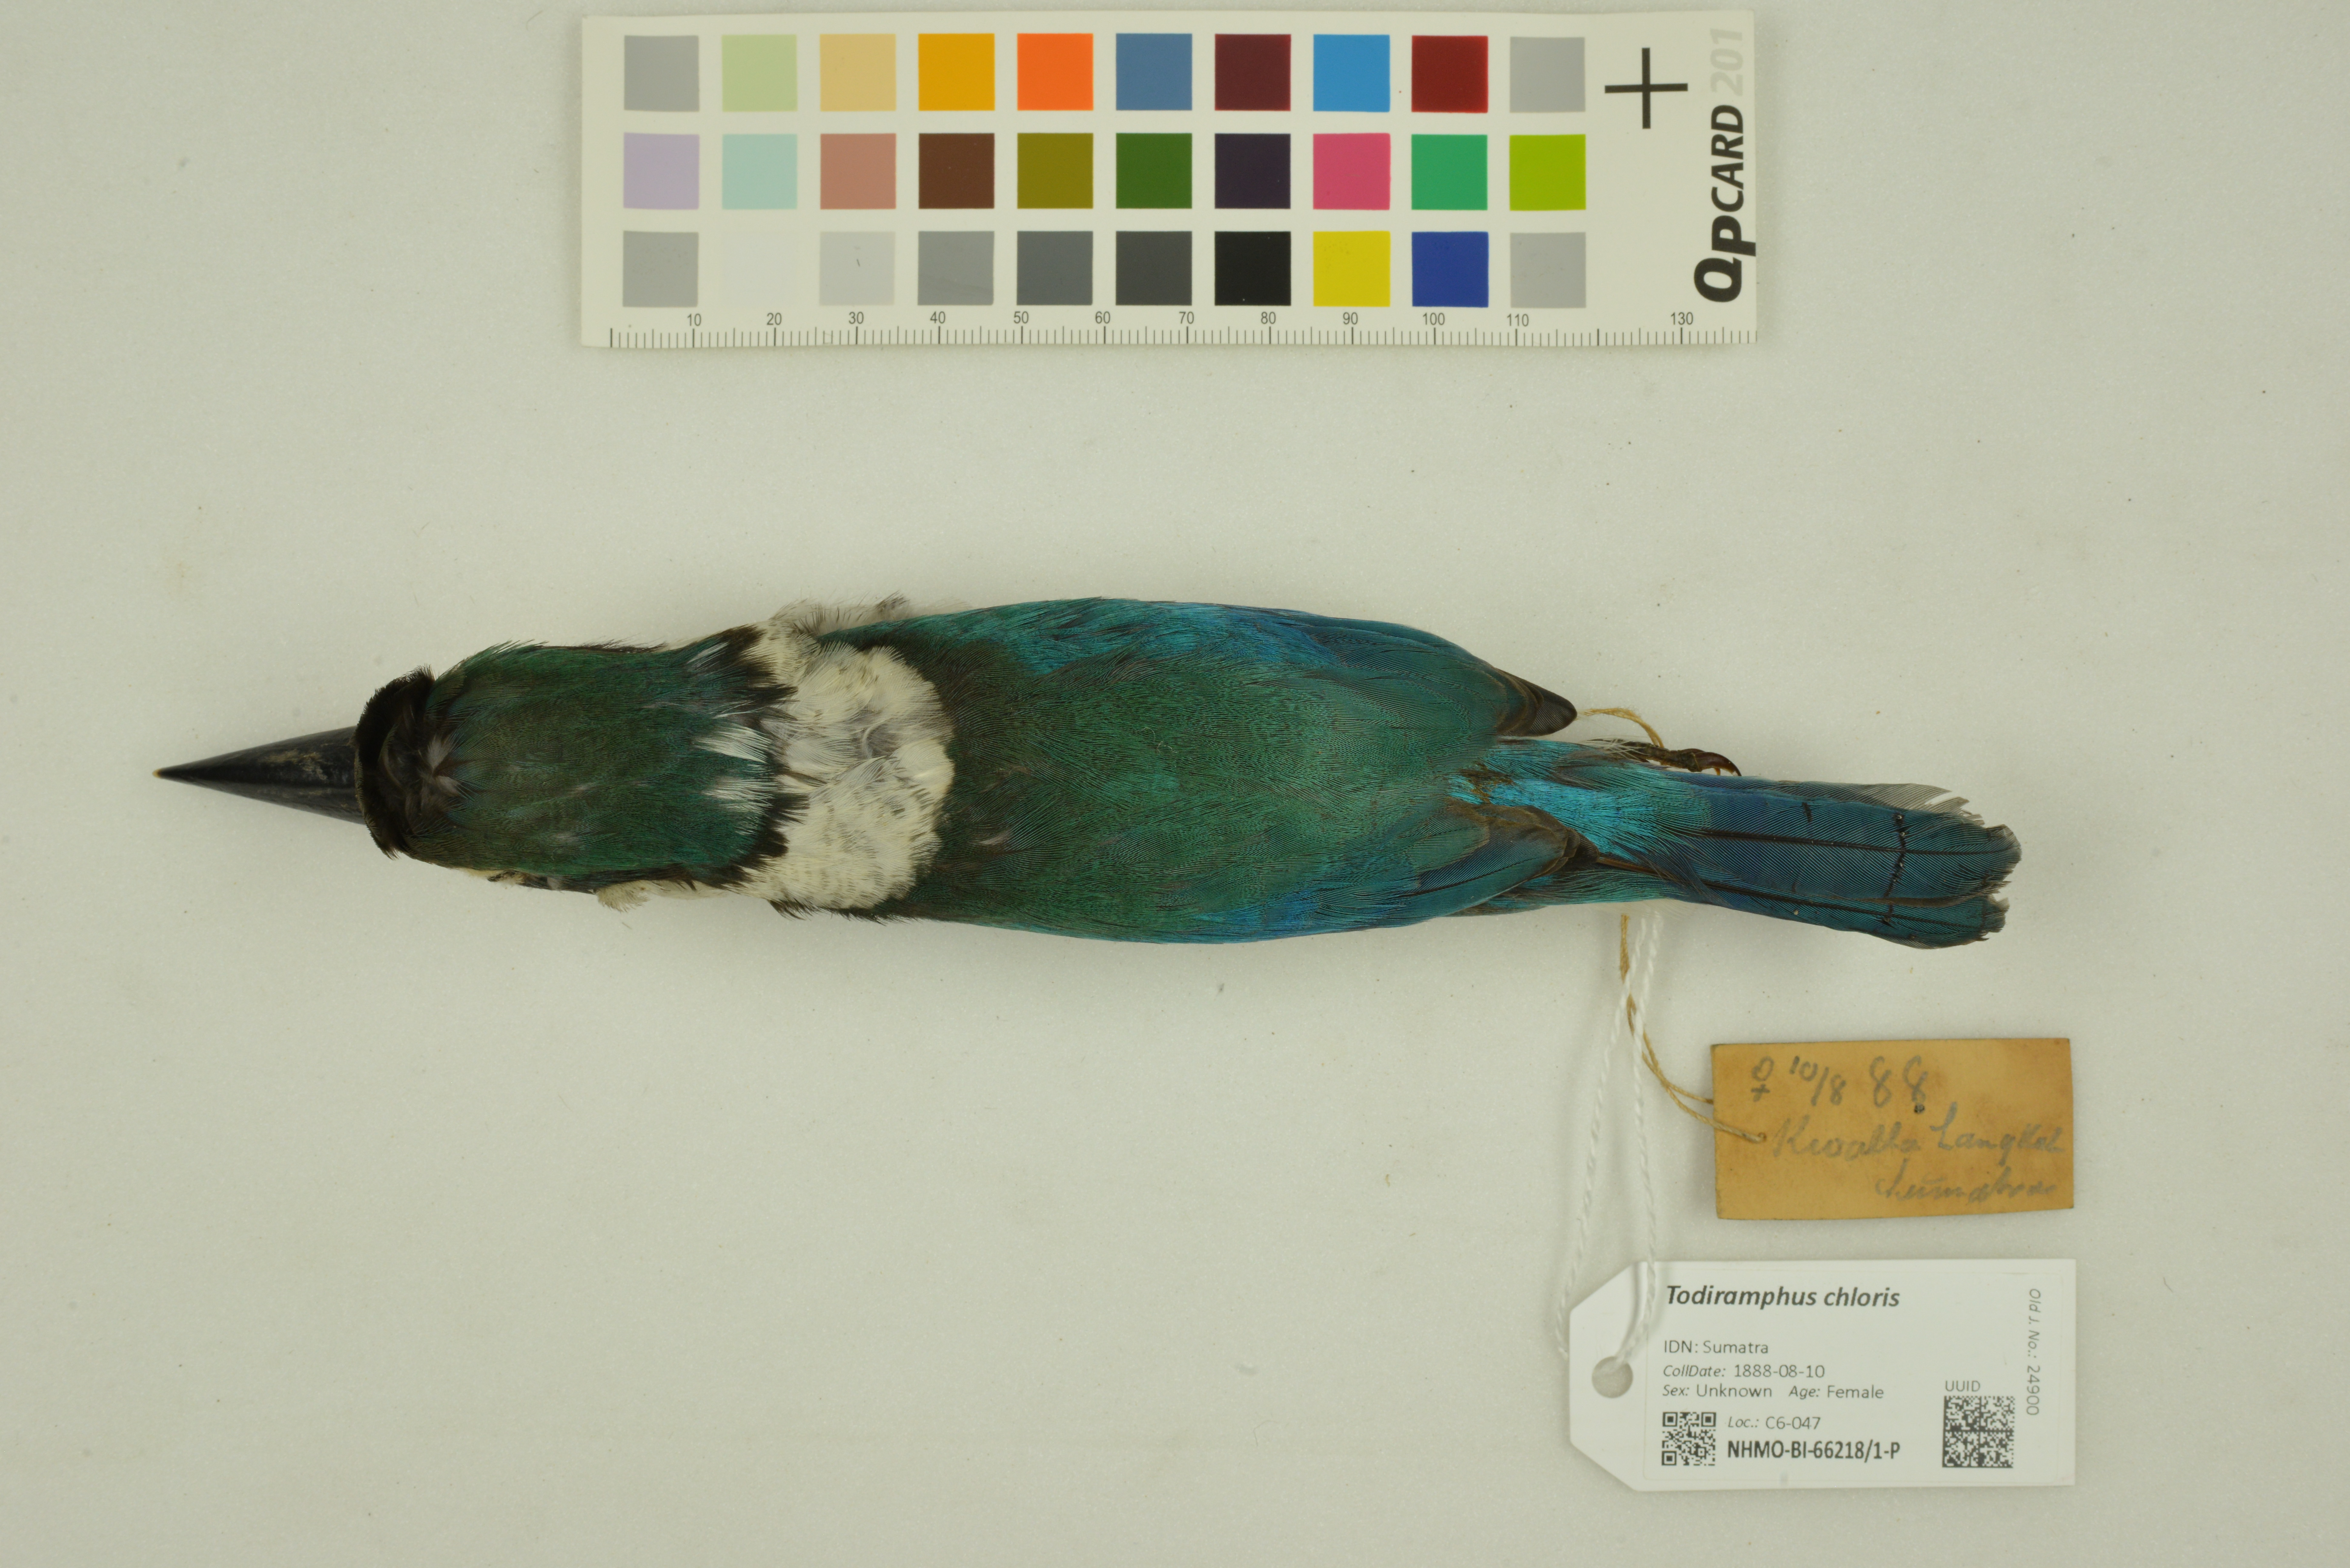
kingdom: Animalia
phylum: Chordata
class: Aves
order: Coraciiformes
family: Alcedinidae
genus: Todiramphus
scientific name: Todiramphus chloris
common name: Collared kingfisher
